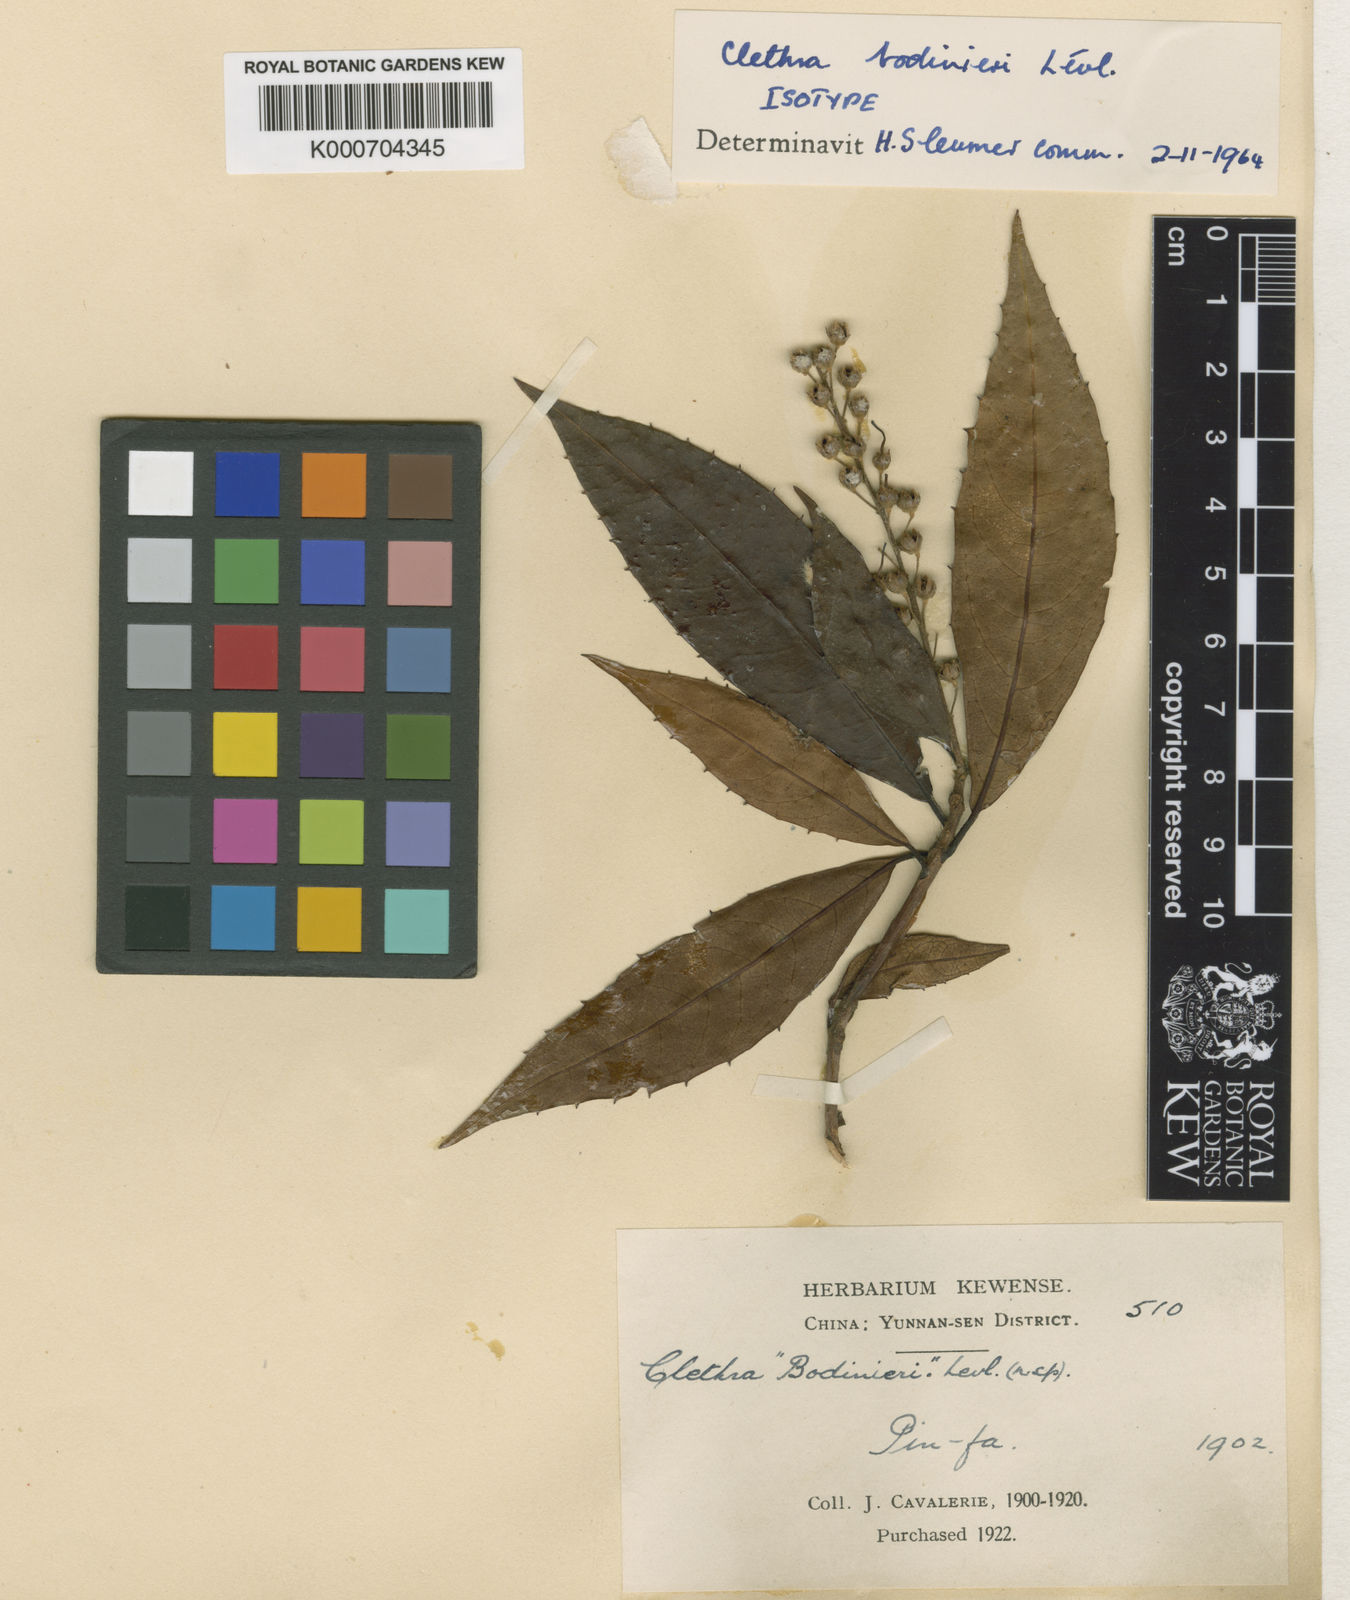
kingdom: Plantae
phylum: Tracheophyta
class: Magnoliopsida
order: Ericales
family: Clethraceae
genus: Clethra
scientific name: Clethra
